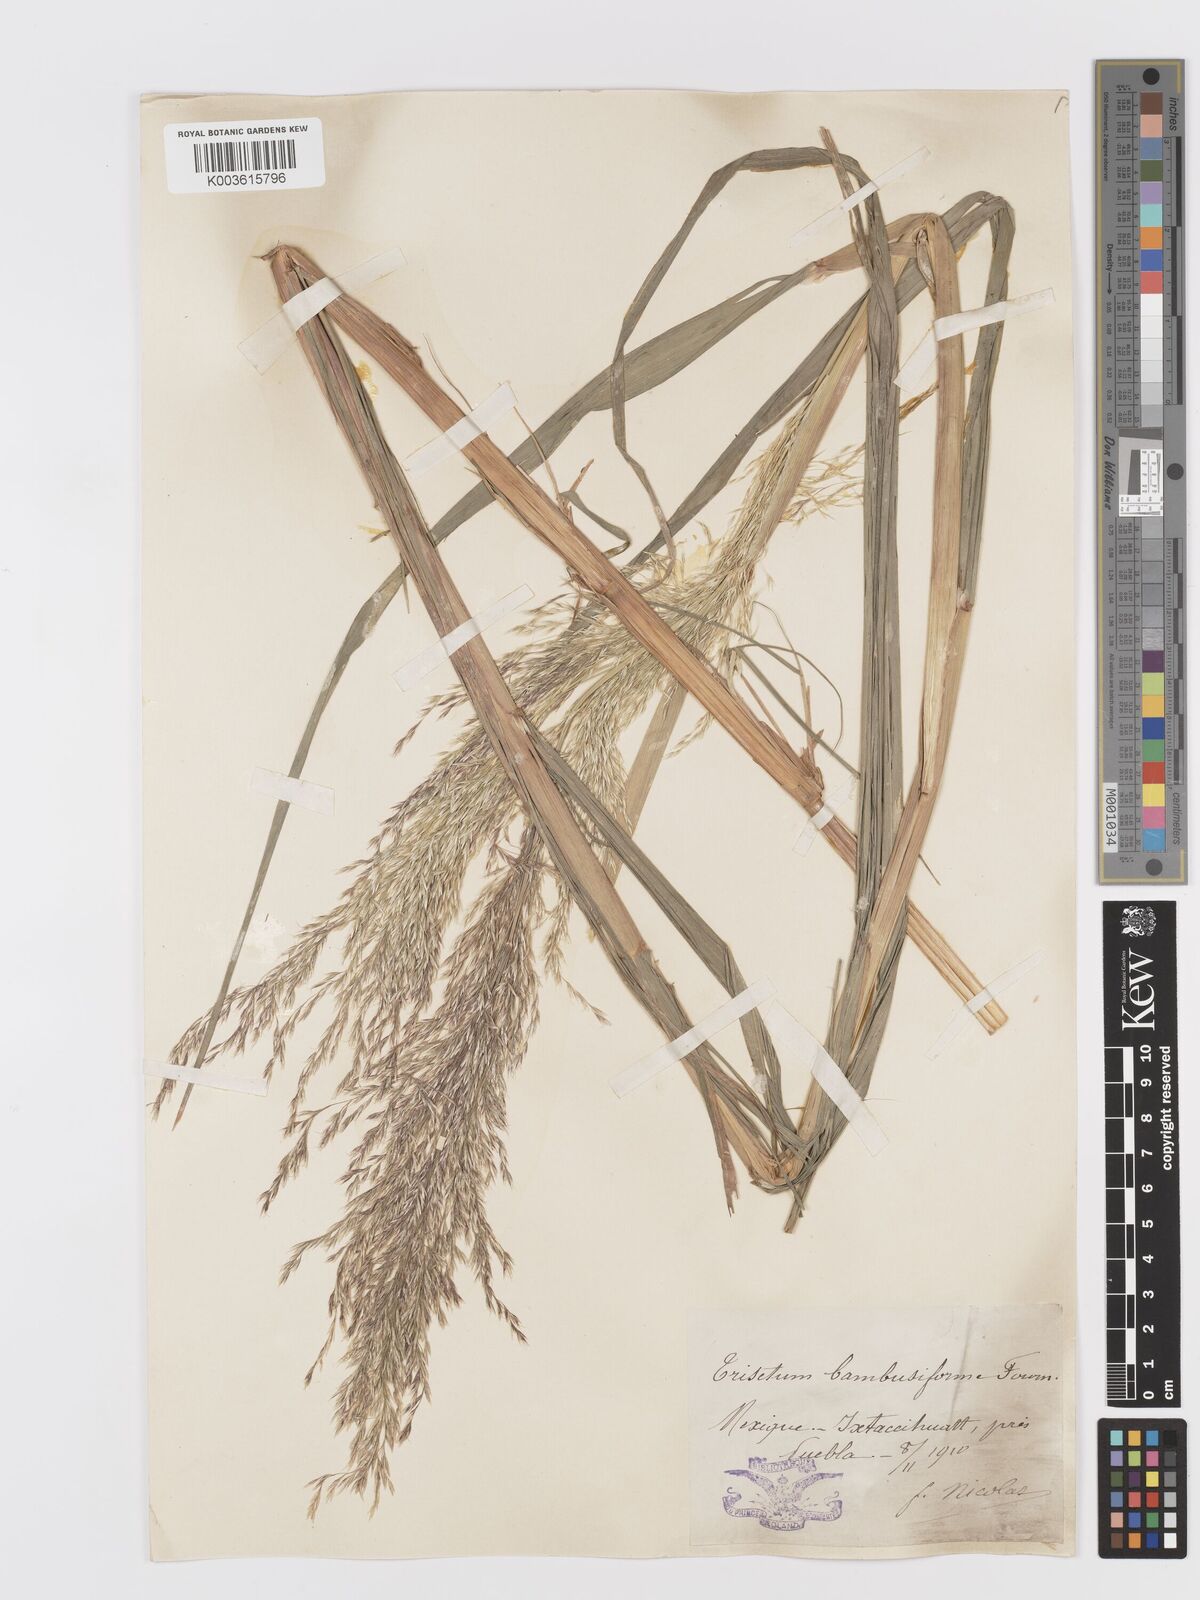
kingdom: Plantae
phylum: Tracheophyta
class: Liliopsida
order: Poales
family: Poaceae
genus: Peyritschia
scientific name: Peyritschia virletii
